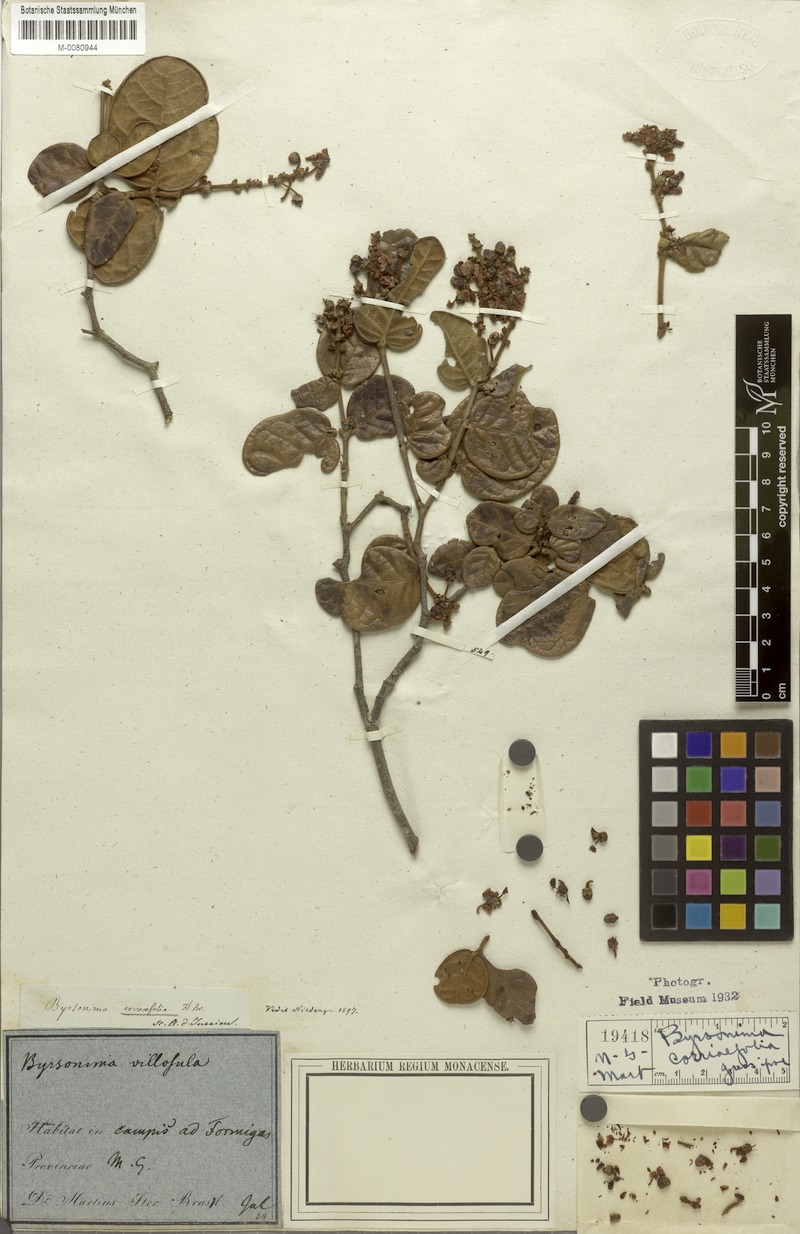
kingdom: Plantae
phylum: Tracheophyta
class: Magnoliopsida
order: Malpighiales
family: Malpighiaceae
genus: Byrsonima
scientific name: Byrsonima correifolia
